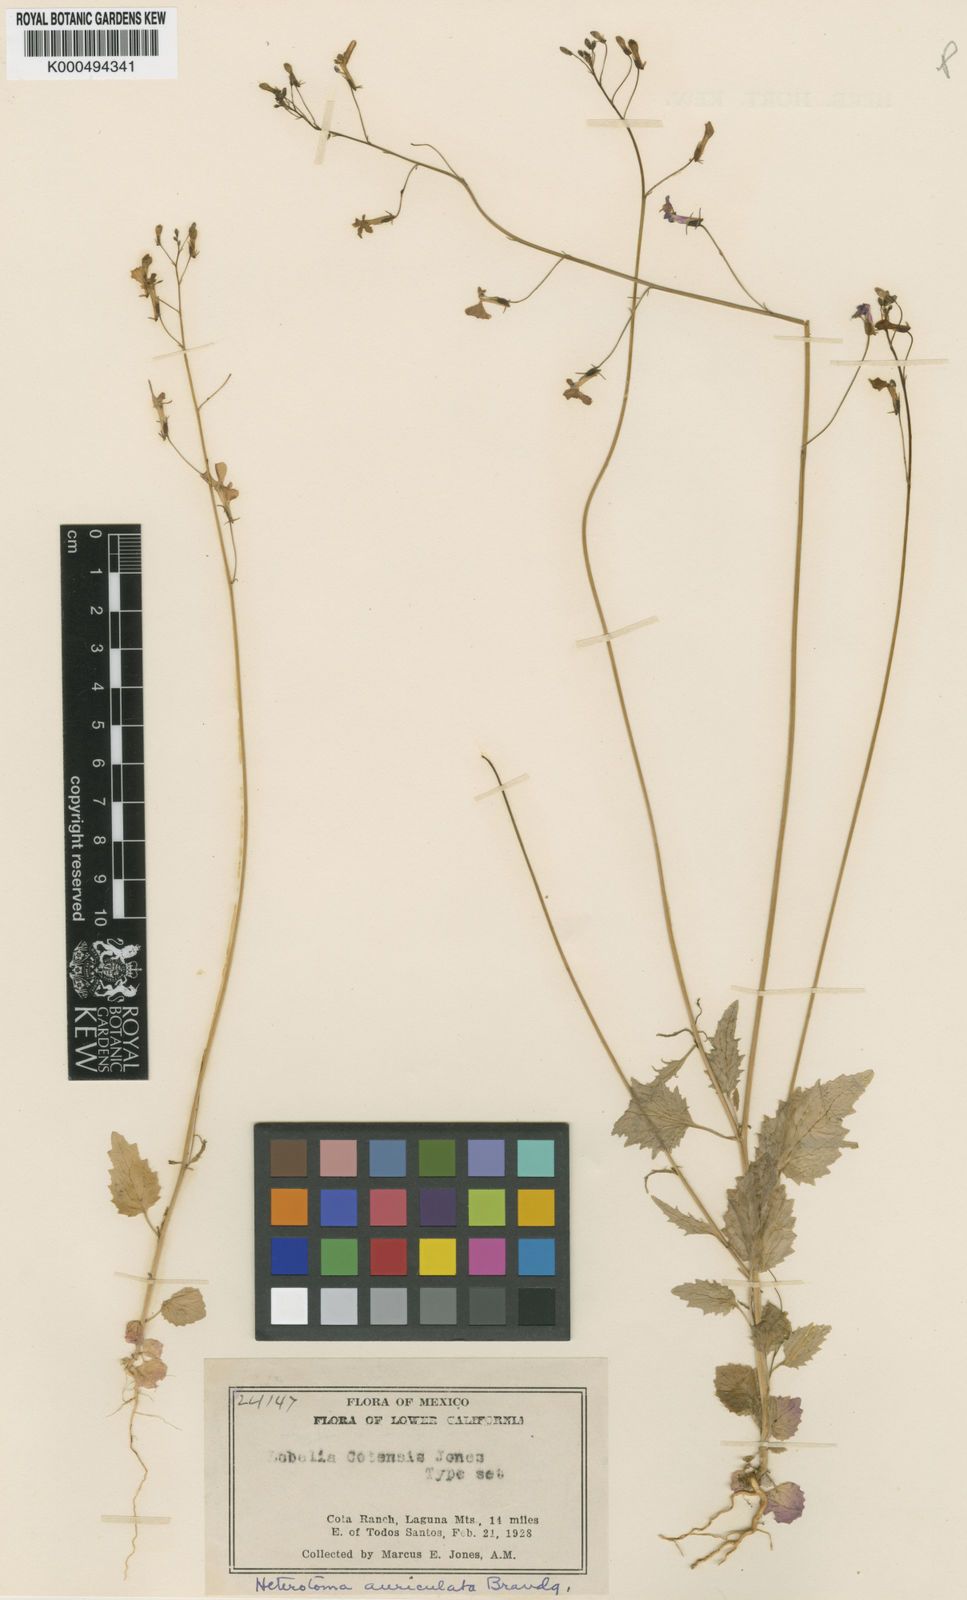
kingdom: Plantae
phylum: Tracheophyta
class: Magnoliopsida
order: Asterales
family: Campanulaceae
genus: Heterotoma
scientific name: Heterotoma
